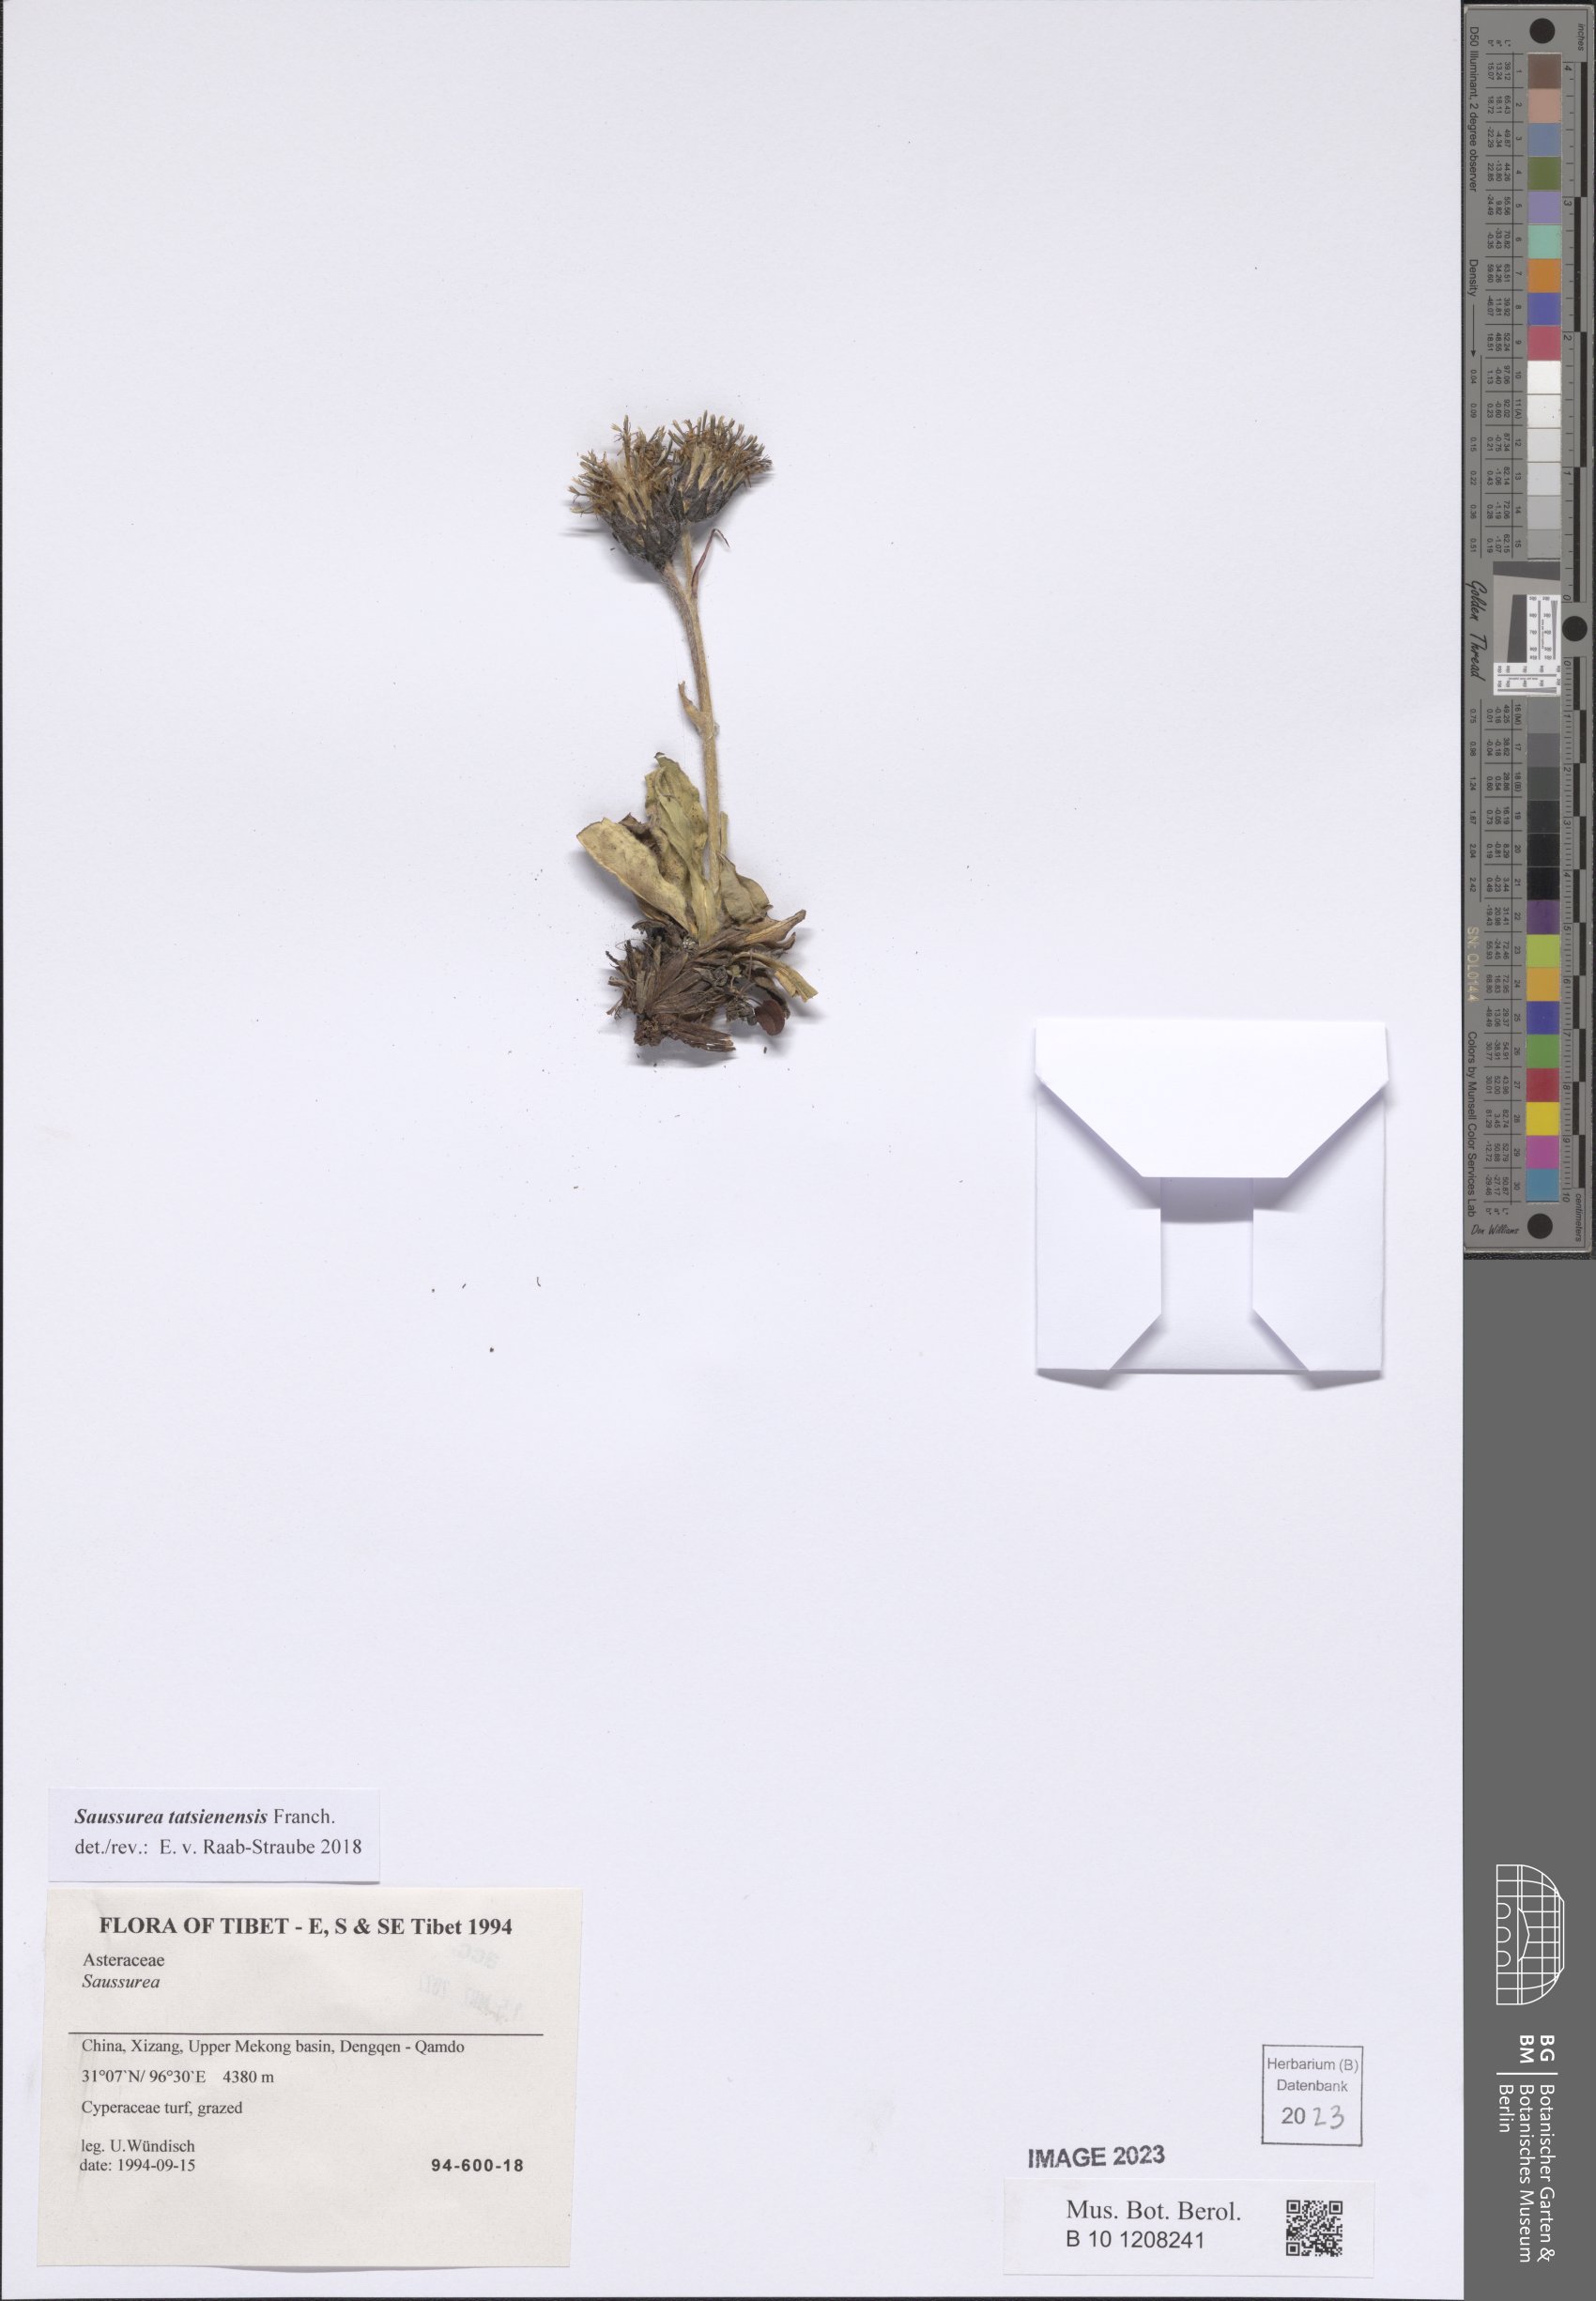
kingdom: Plantae
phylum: Tracheophyta
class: Magnoliopsida
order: Asterales
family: Asteraceae
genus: Saussurea
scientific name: Saussurea tatsienensis
